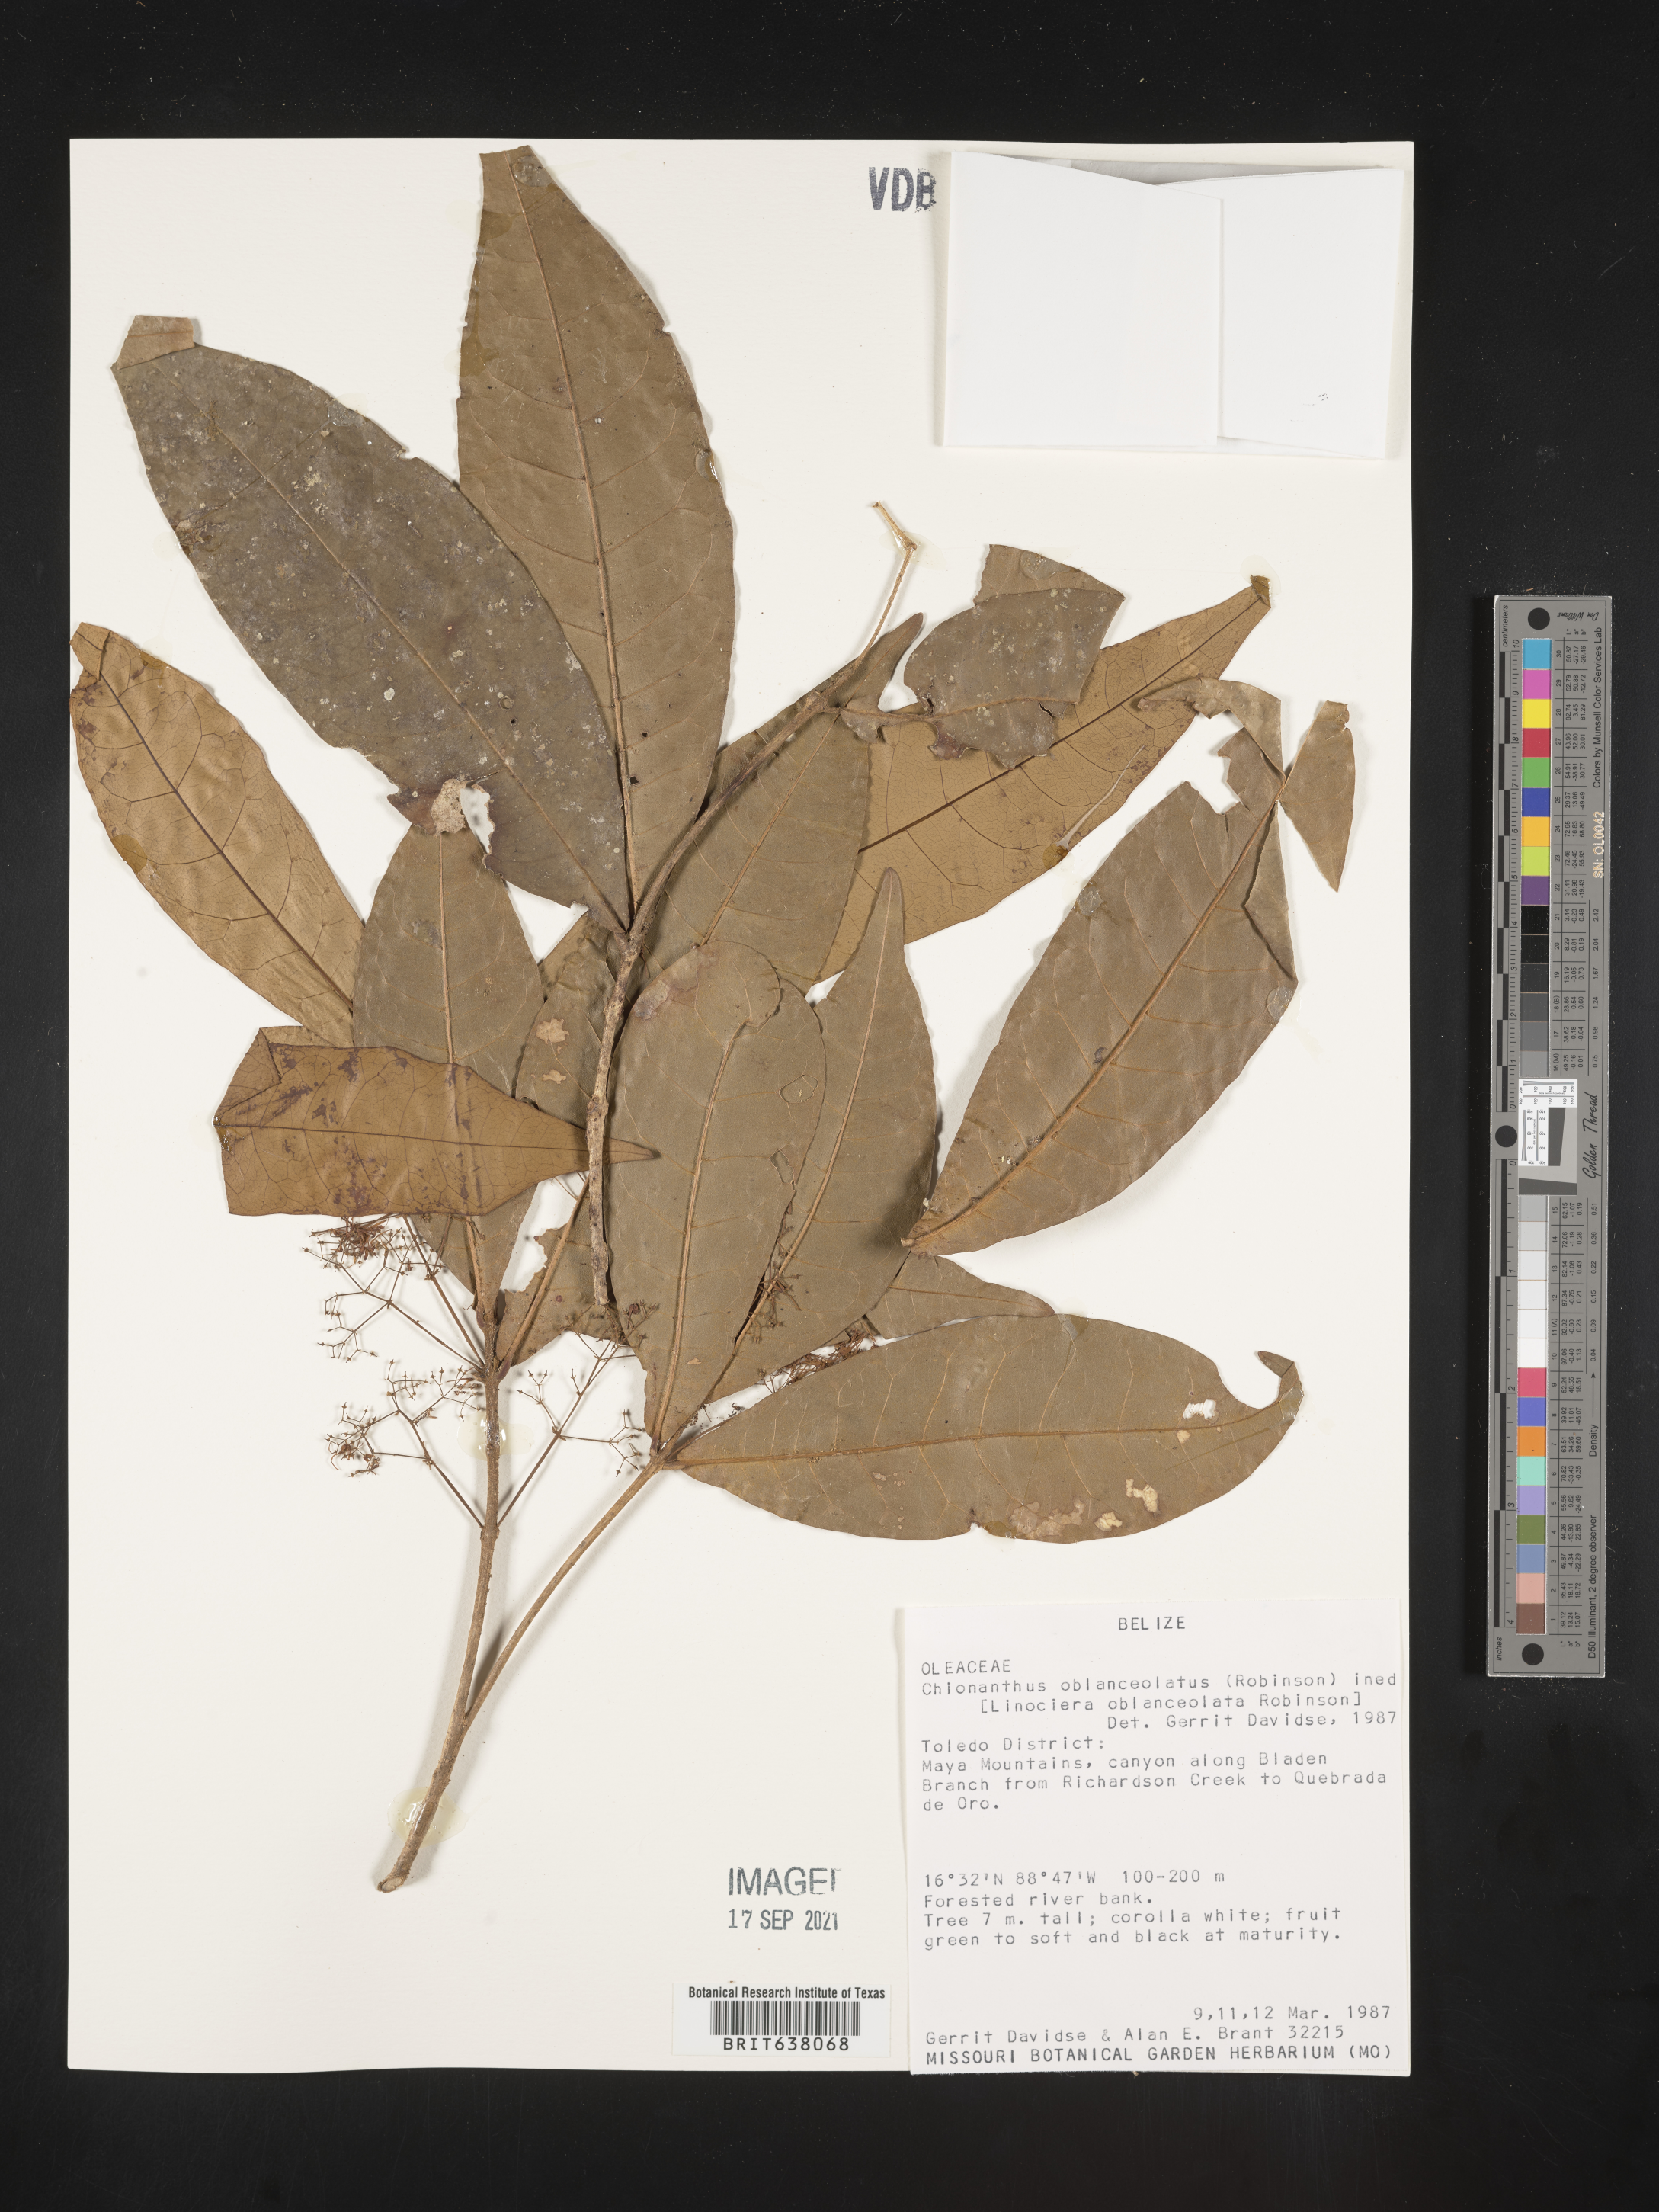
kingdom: Plantae
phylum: Tracheophyta
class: Magnoliopsida
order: Lamiales
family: Oleaceae
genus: Chionanthus
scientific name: Chionanthus
